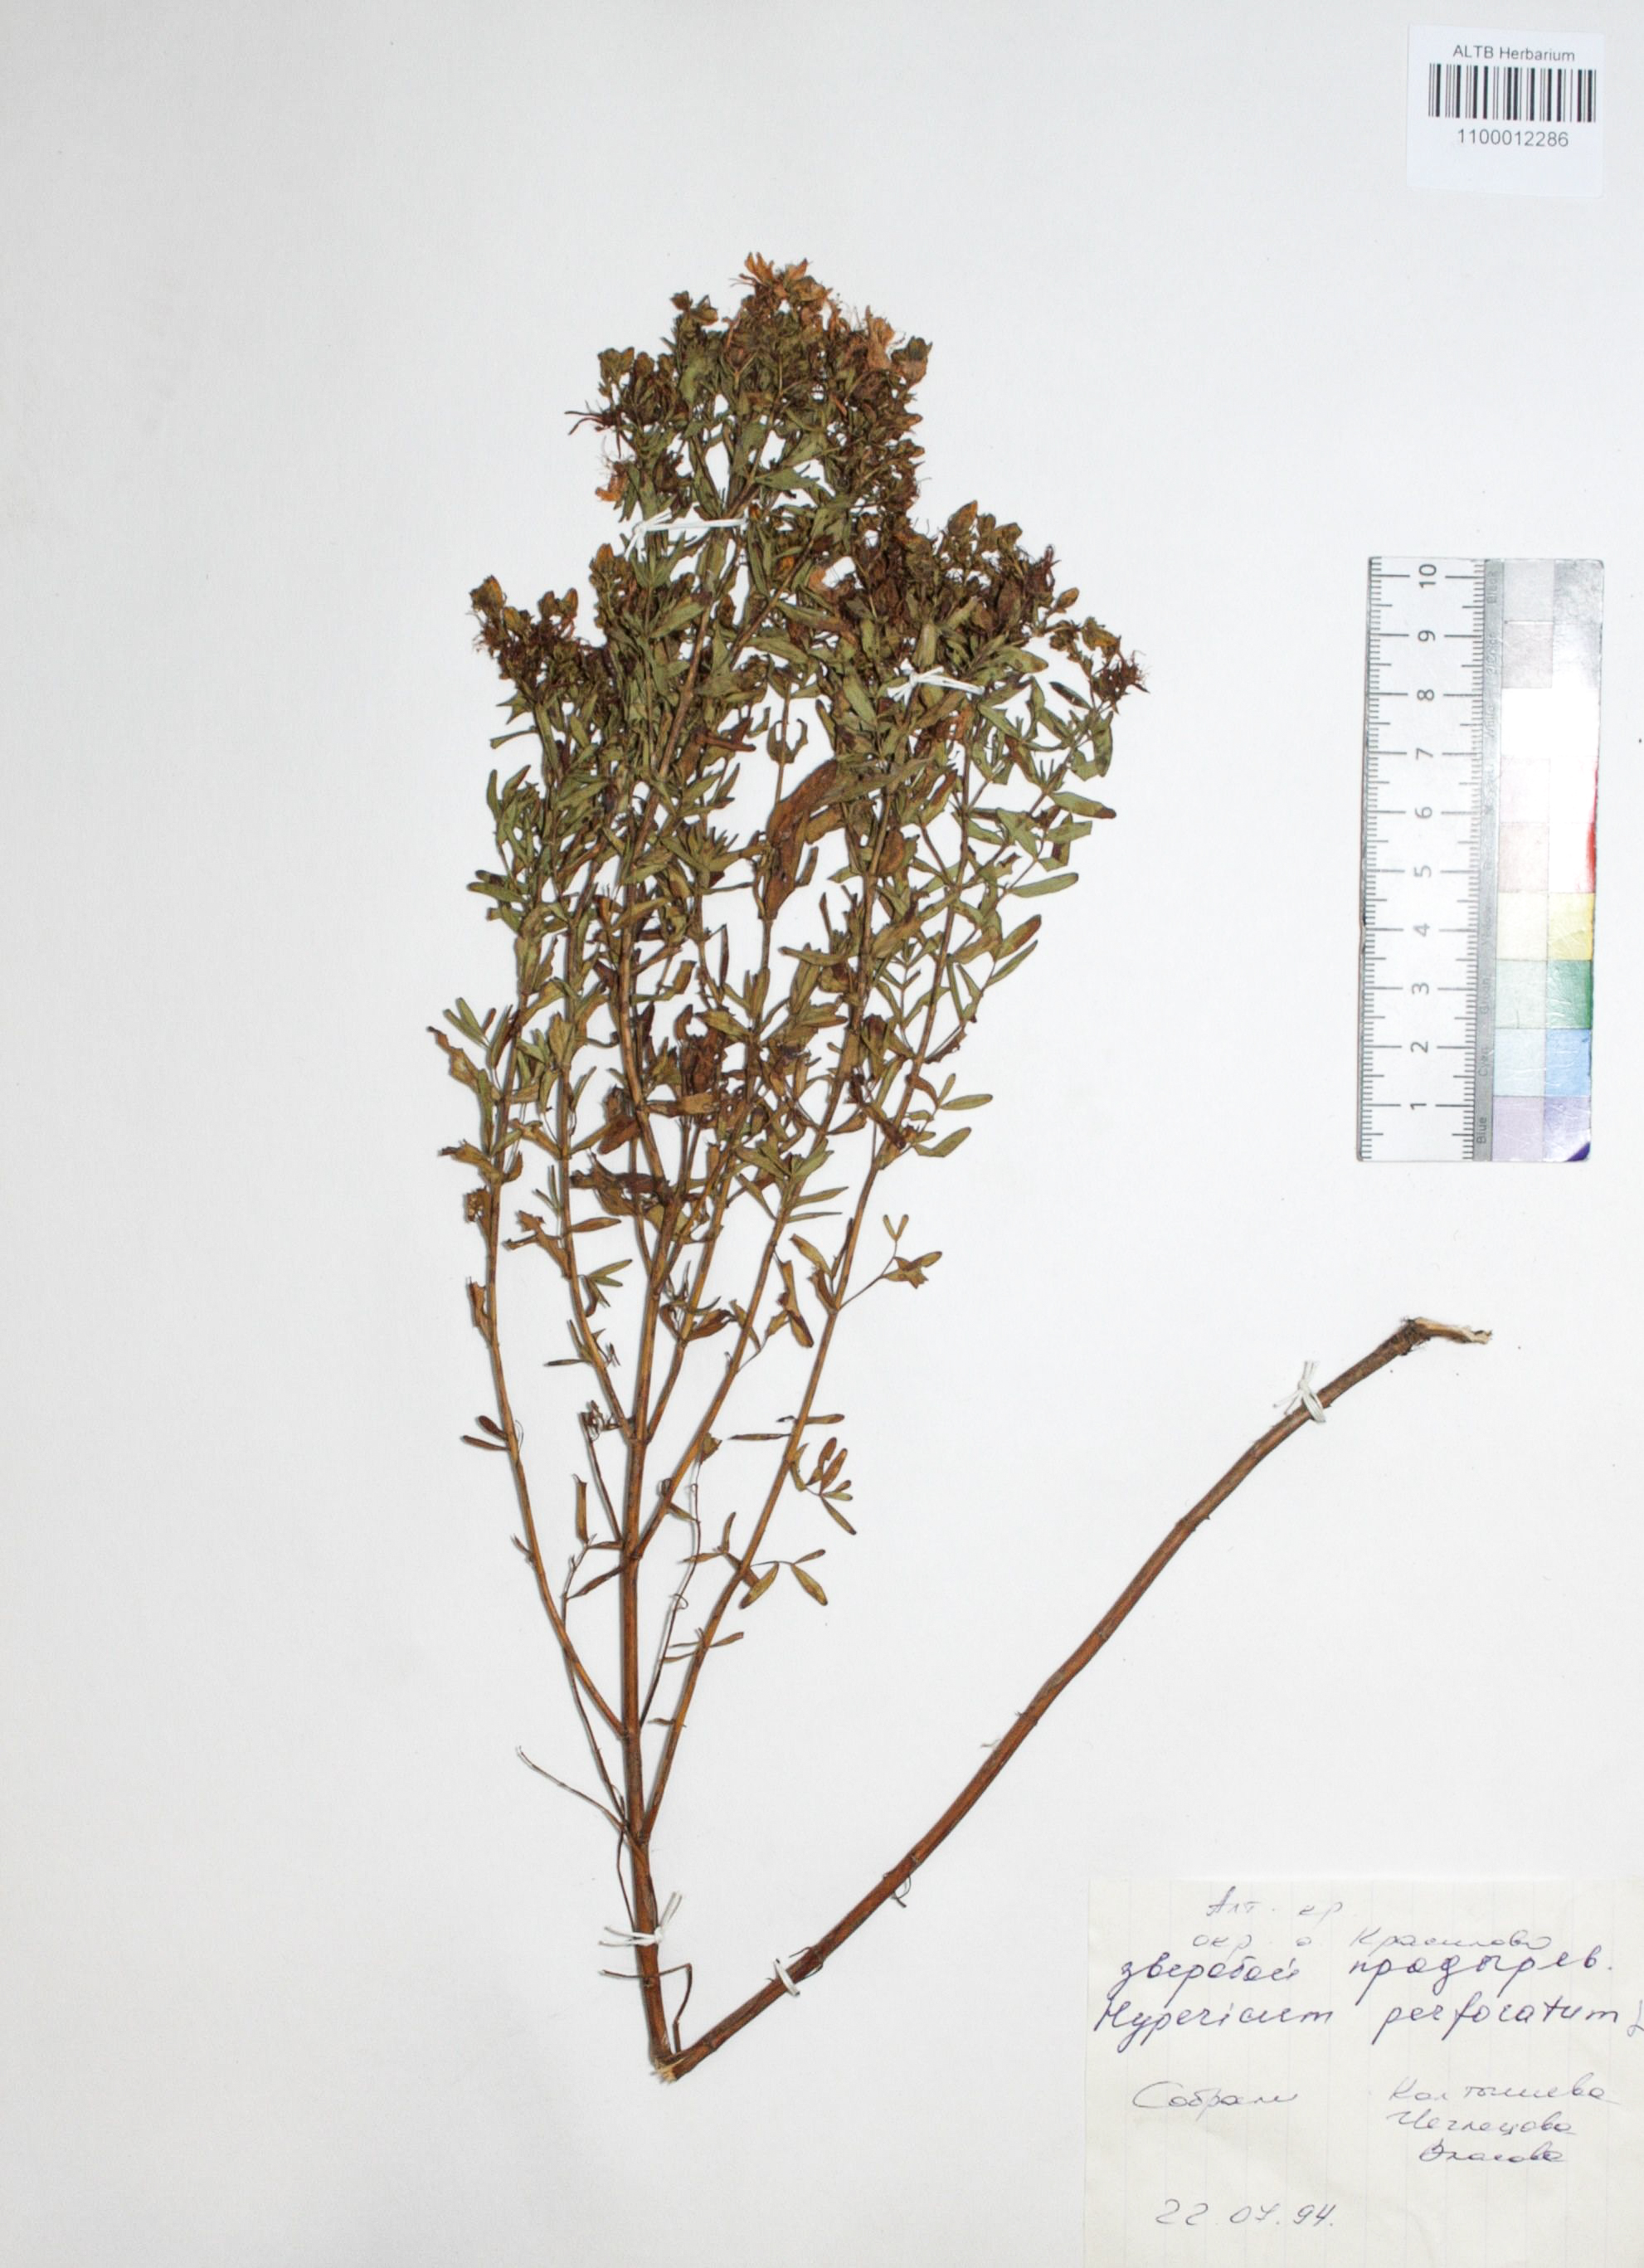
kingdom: Plantae
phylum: Tracheophyta
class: Magnoliopsida
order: Malpighiales
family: Hypericaceae
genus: Hypericum
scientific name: Hypericum perforatum
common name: Common st. johnswort
